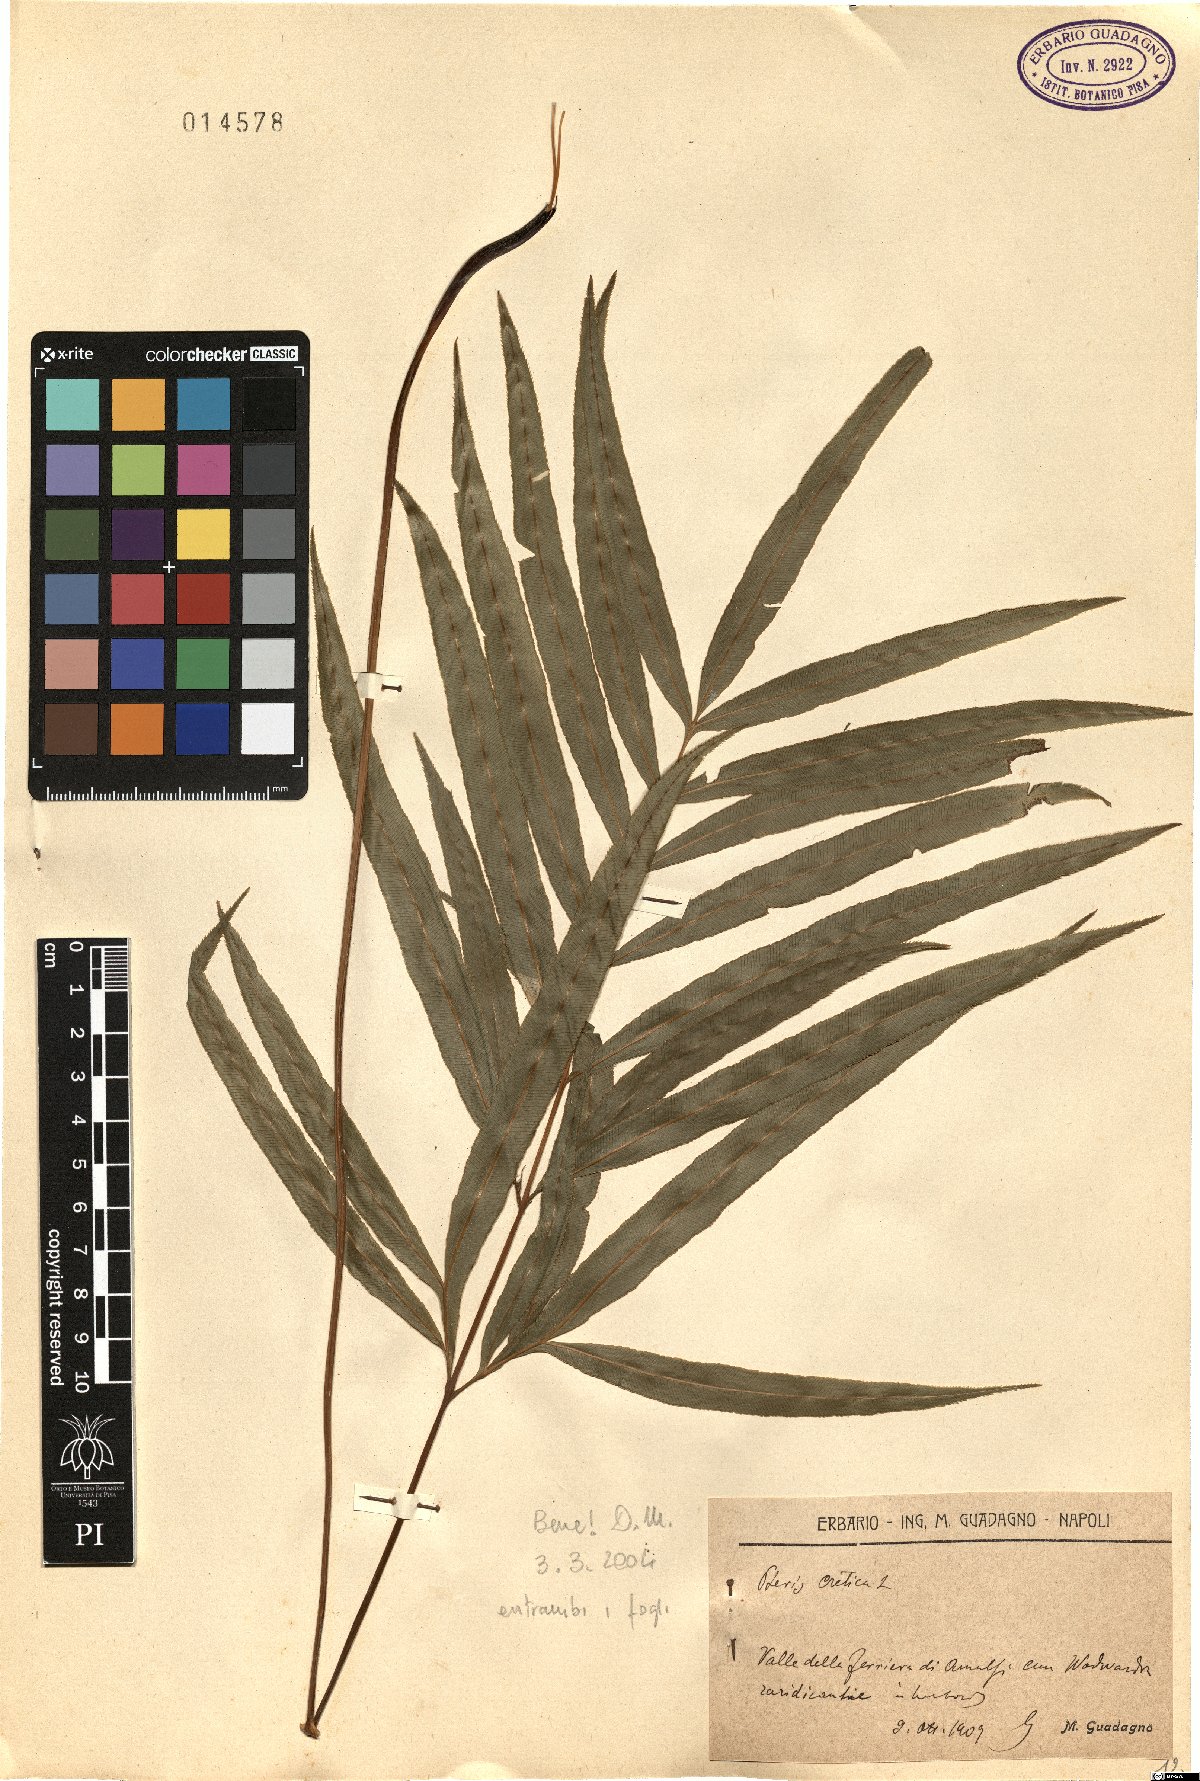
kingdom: Plantae
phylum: Tracheophyta
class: Polypodiopsida
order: Polypodiales
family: Pteridaceae
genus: Pteris
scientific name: Pteris cretica
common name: Ribbon fern
